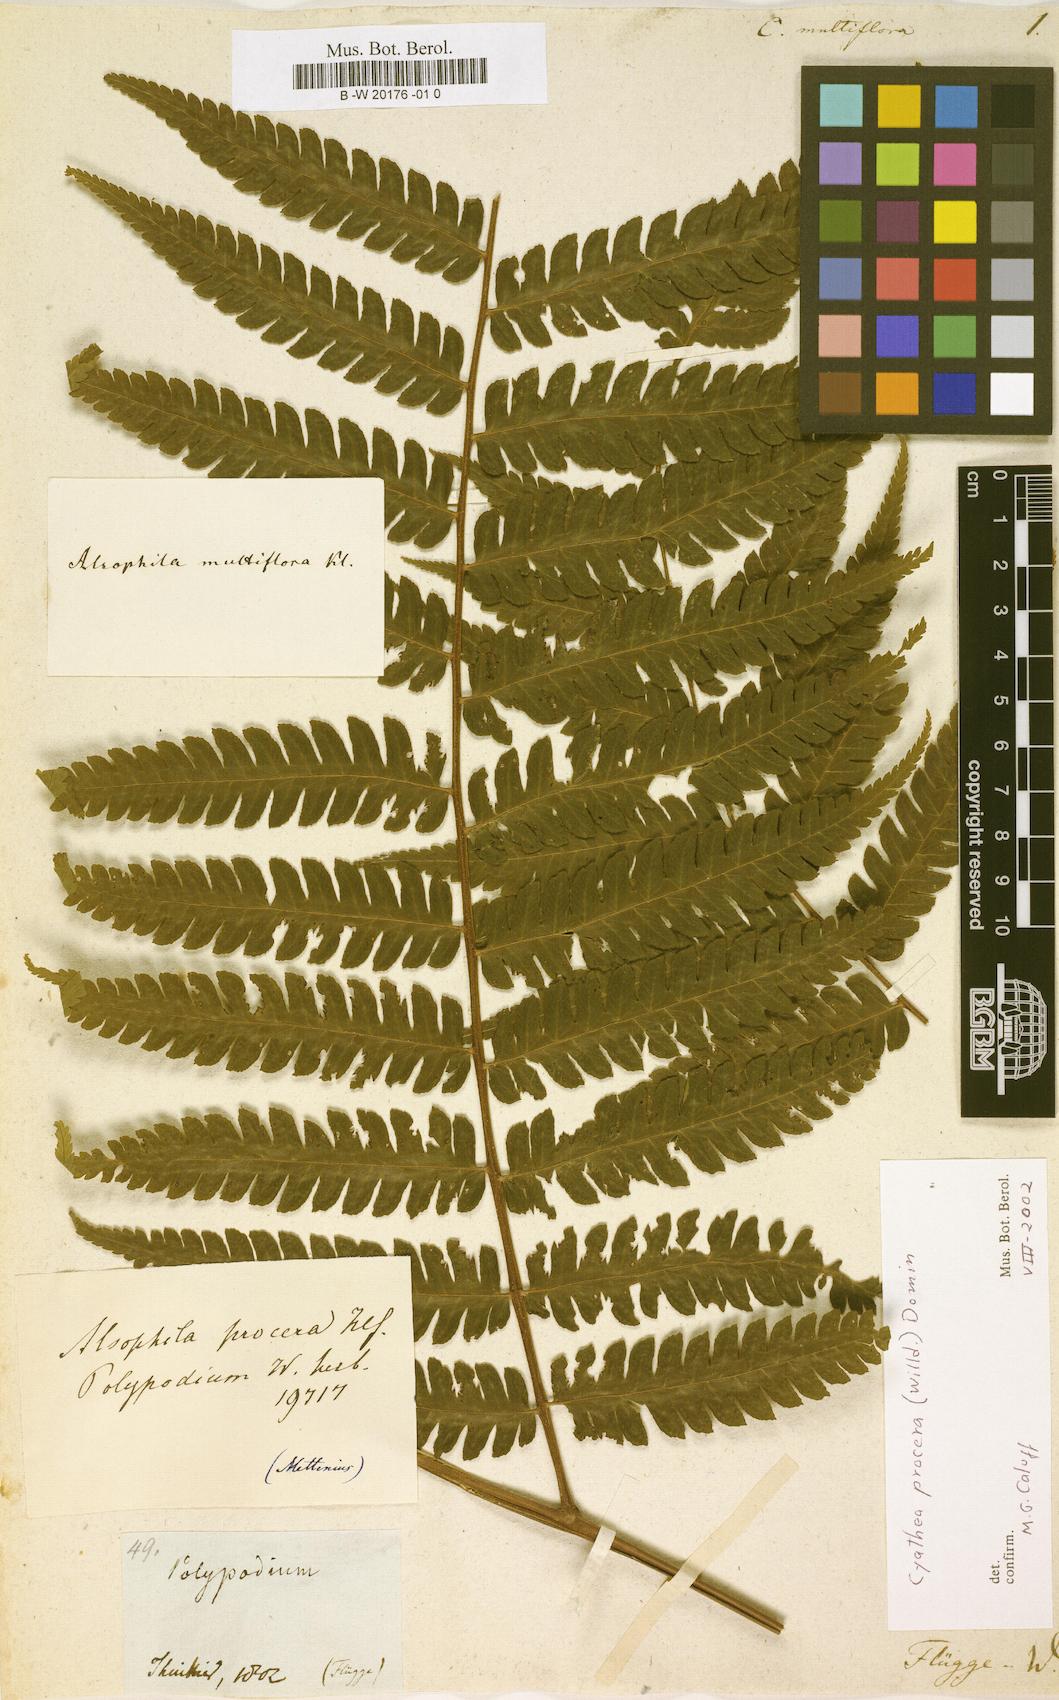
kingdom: Plantae
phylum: Tracheophyta
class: Polypodiopsida
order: Cyatheales
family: Cyatheaceae
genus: Cyathea
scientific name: Cyathea multiflora
